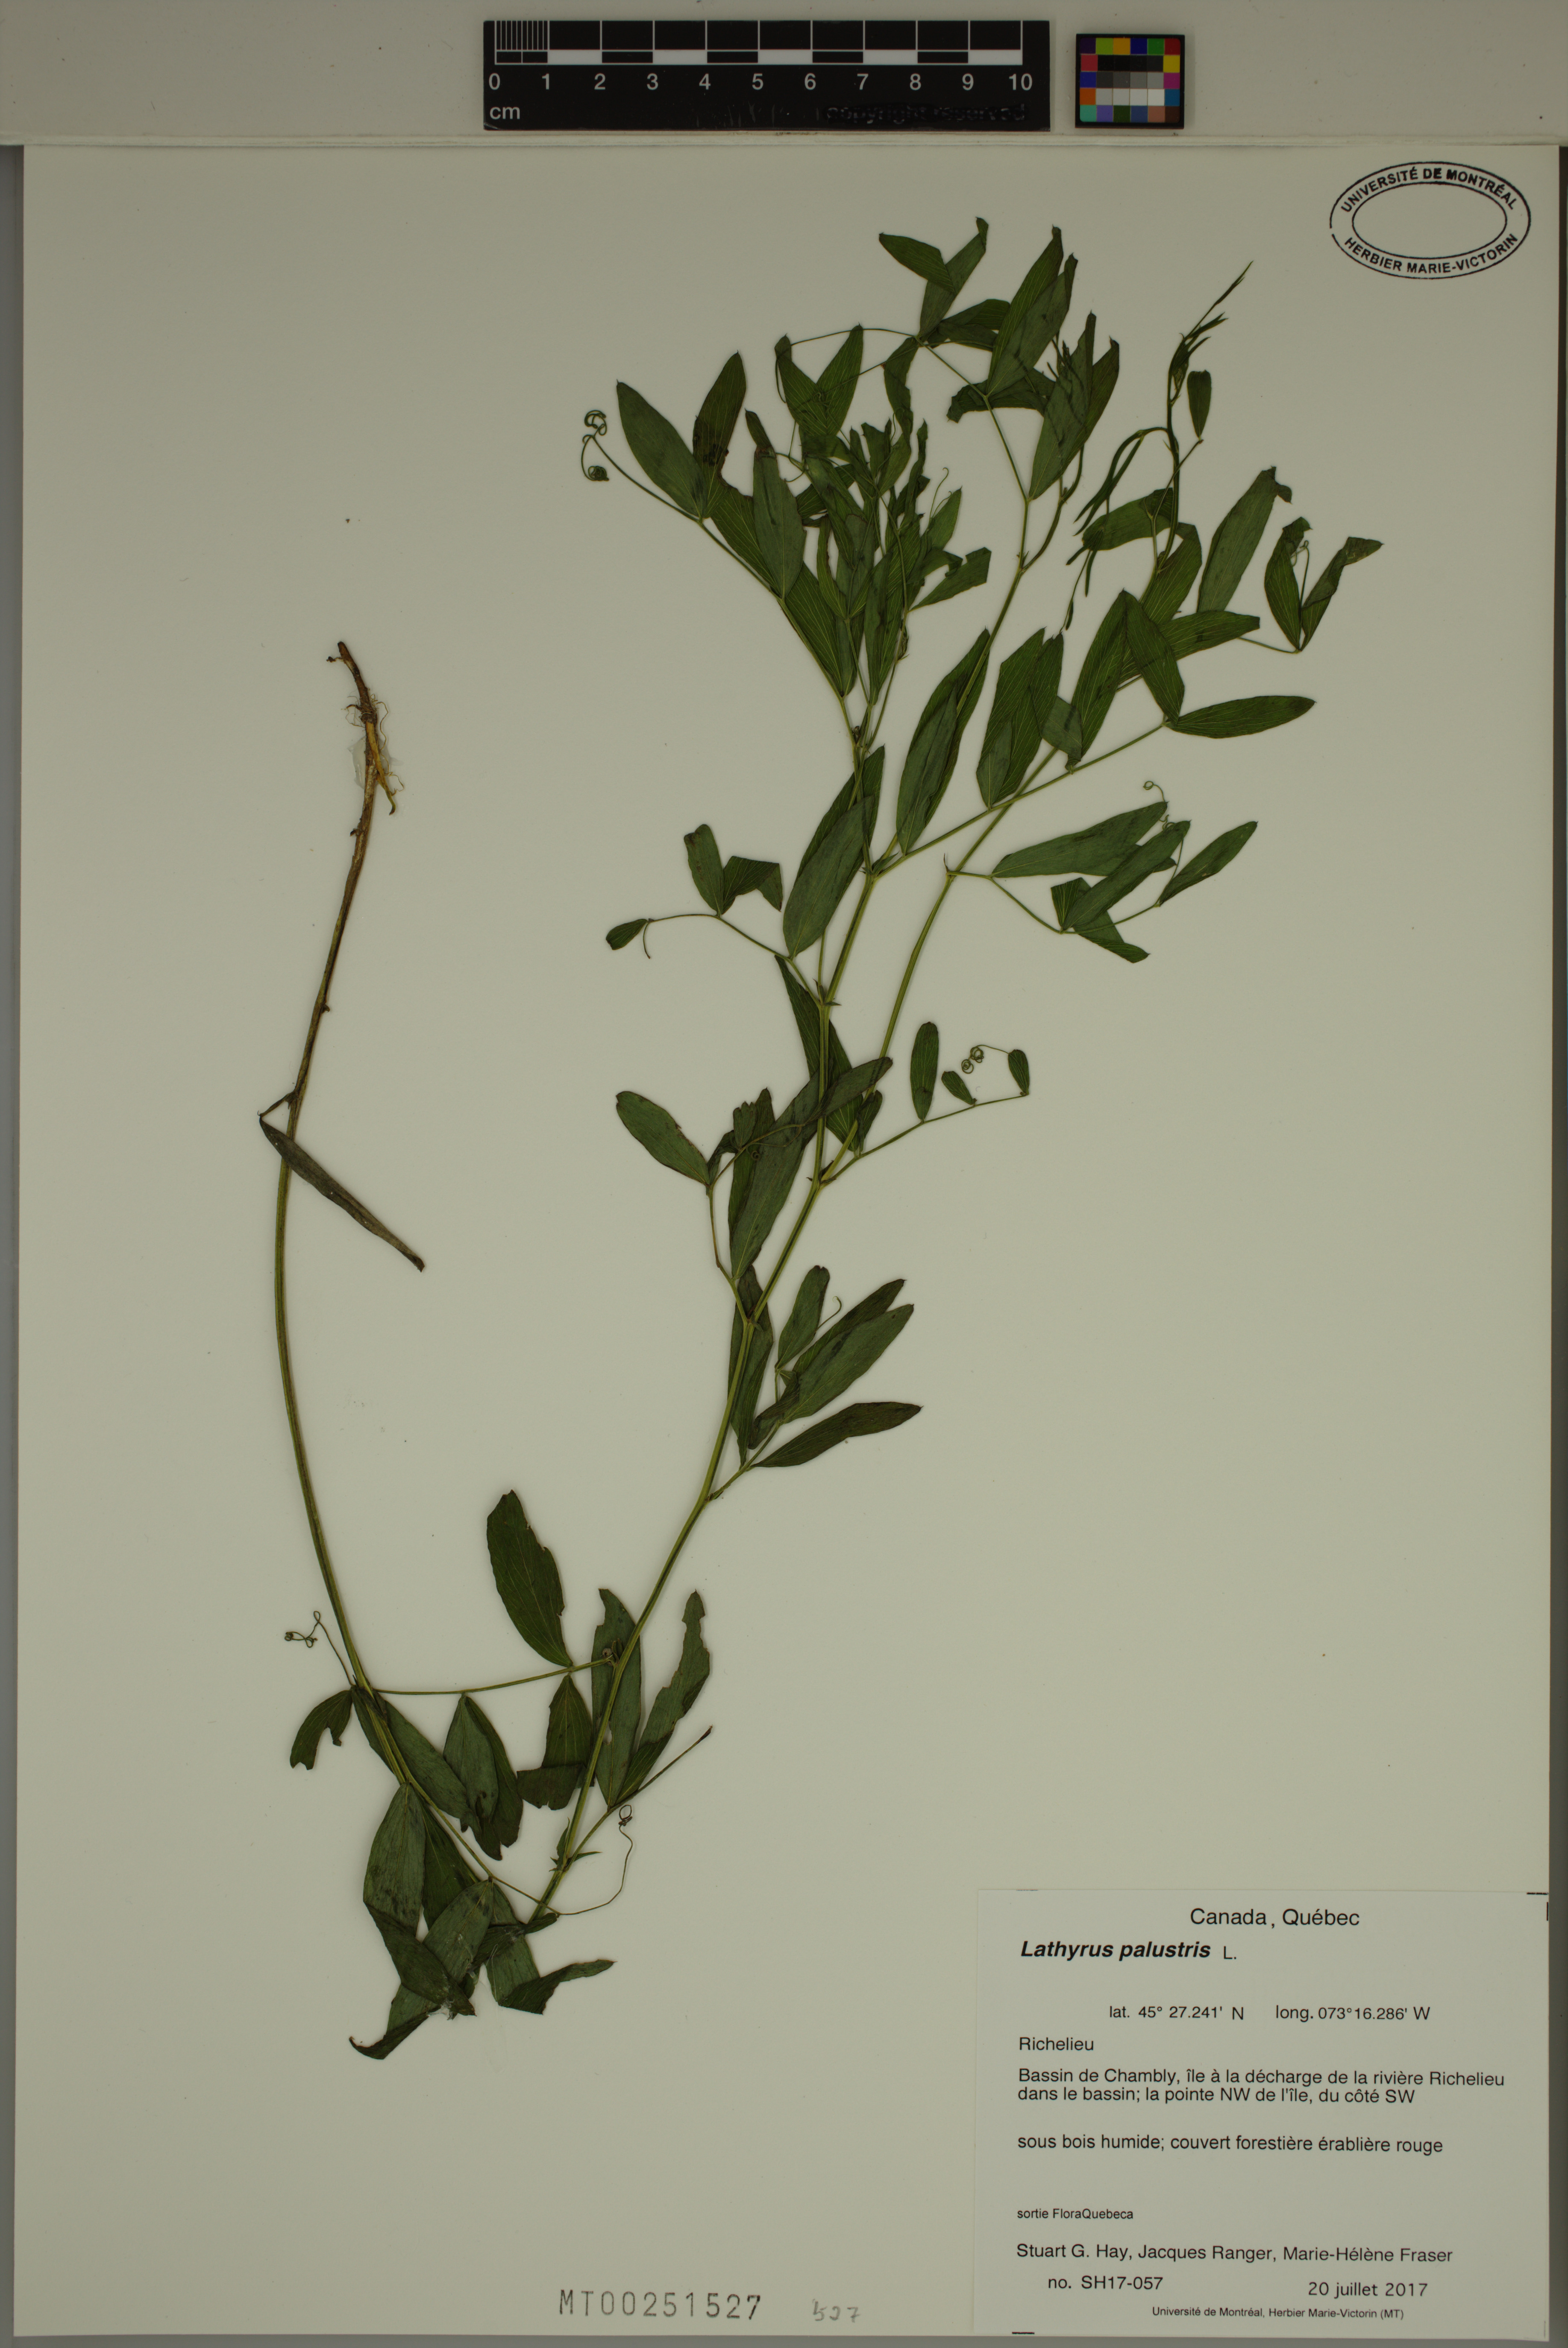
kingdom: Plantae
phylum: Tracheophyta
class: Magnoliopsida
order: Fabales
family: Fabaceae
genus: Lathyrus
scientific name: Lathyrus palustris
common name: Marsh pea
